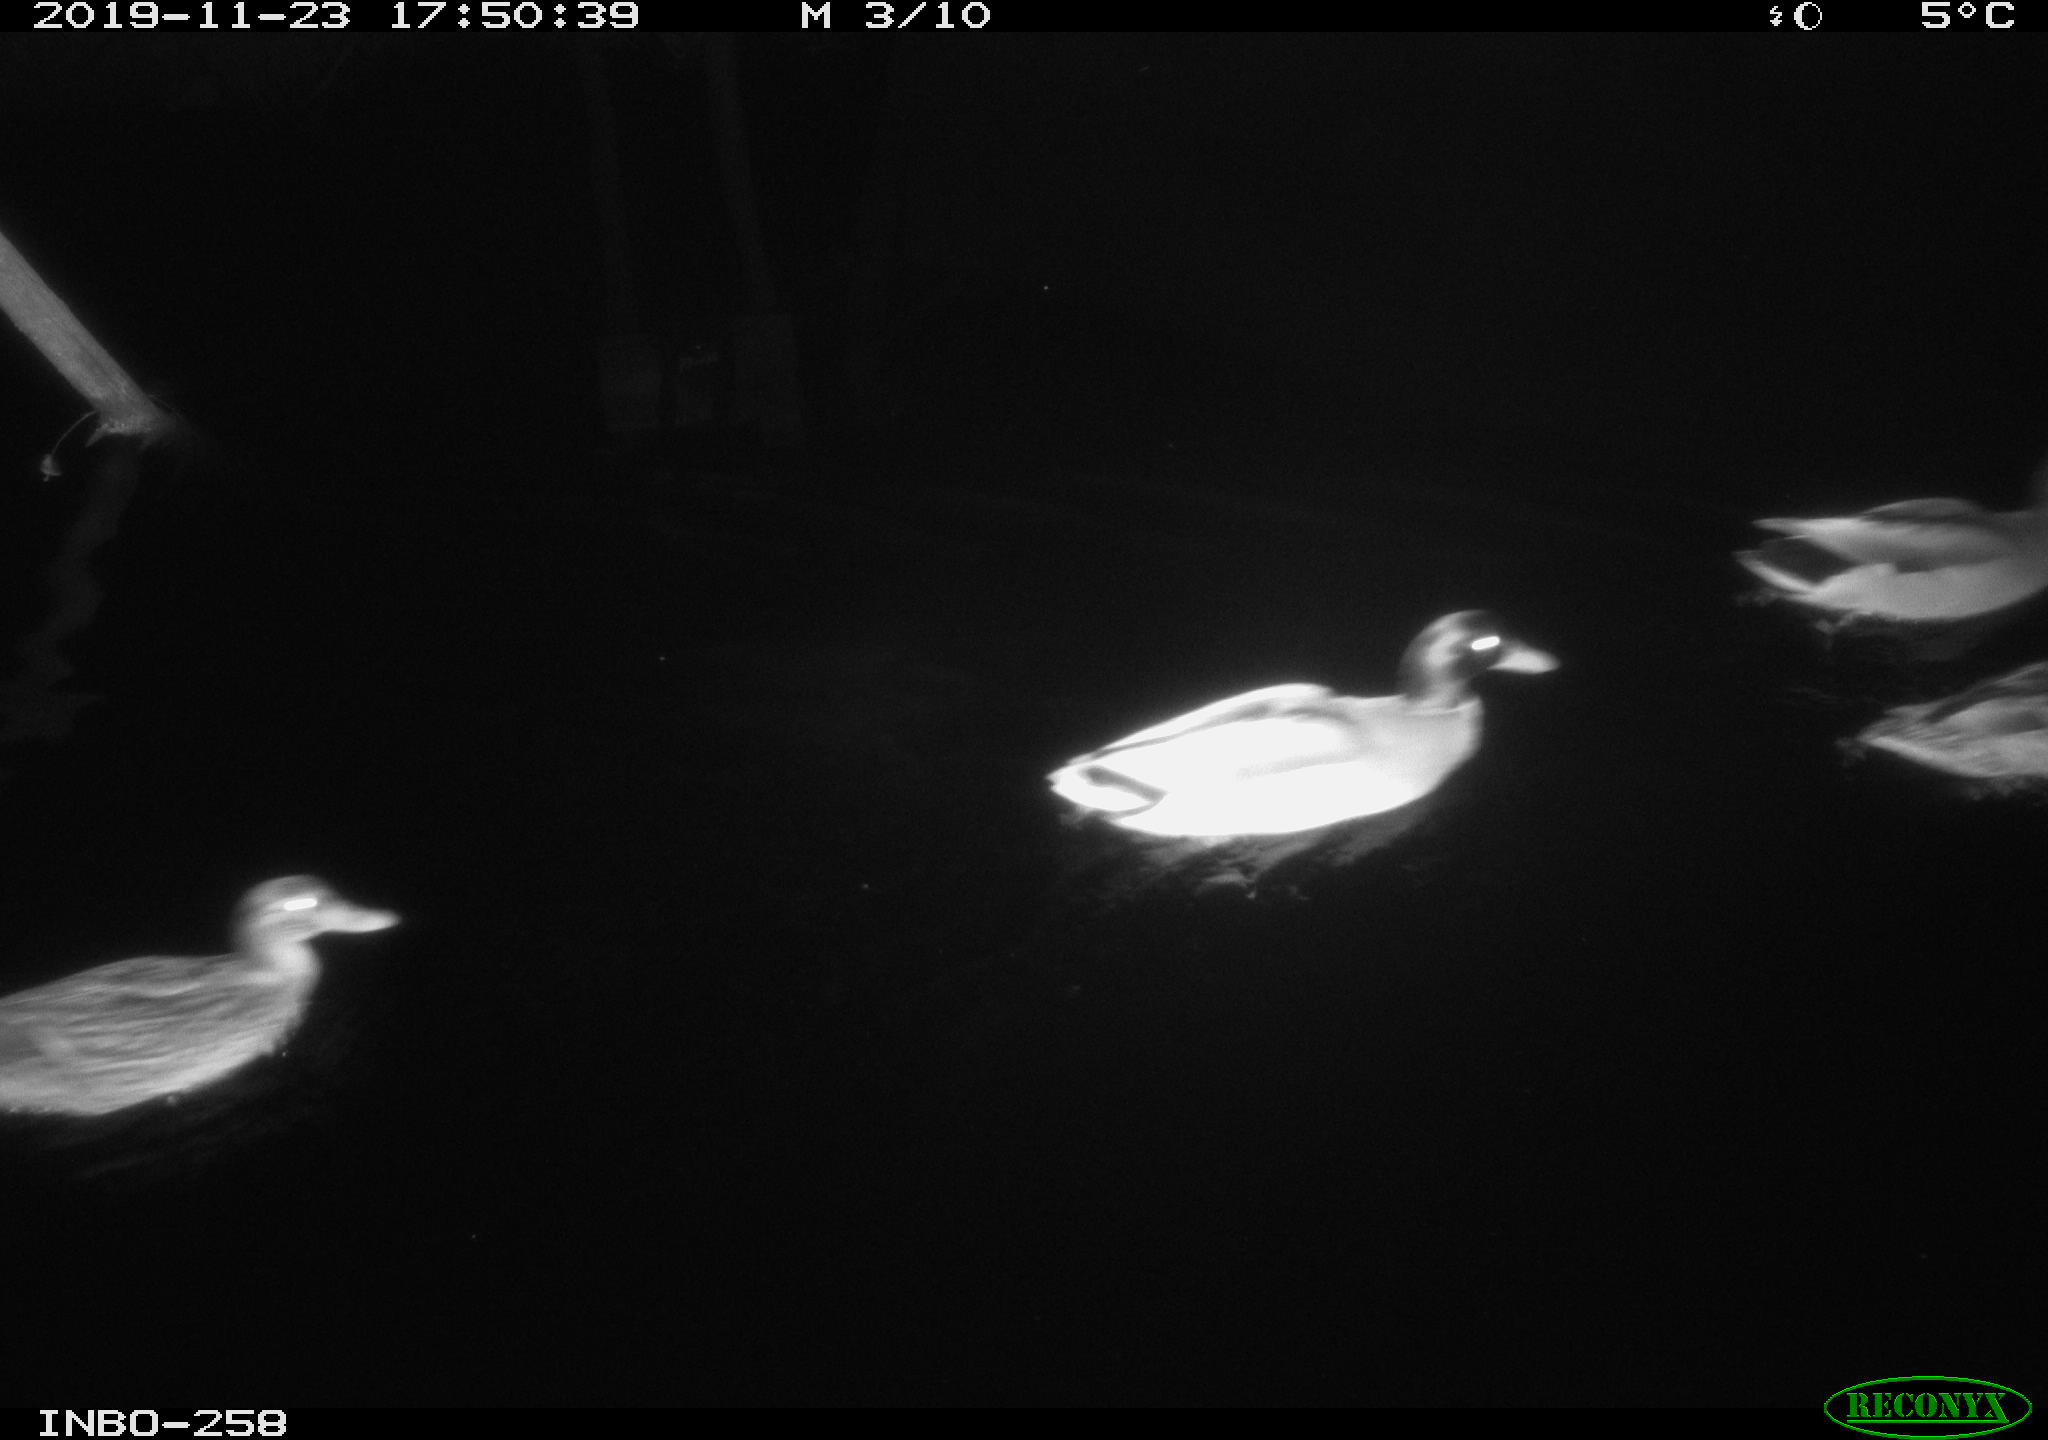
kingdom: Animalia
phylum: Chordata
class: Aves
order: Anseriformes
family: Anatidae
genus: Anas
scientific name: Anas platyrhynchos
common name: Mallard
